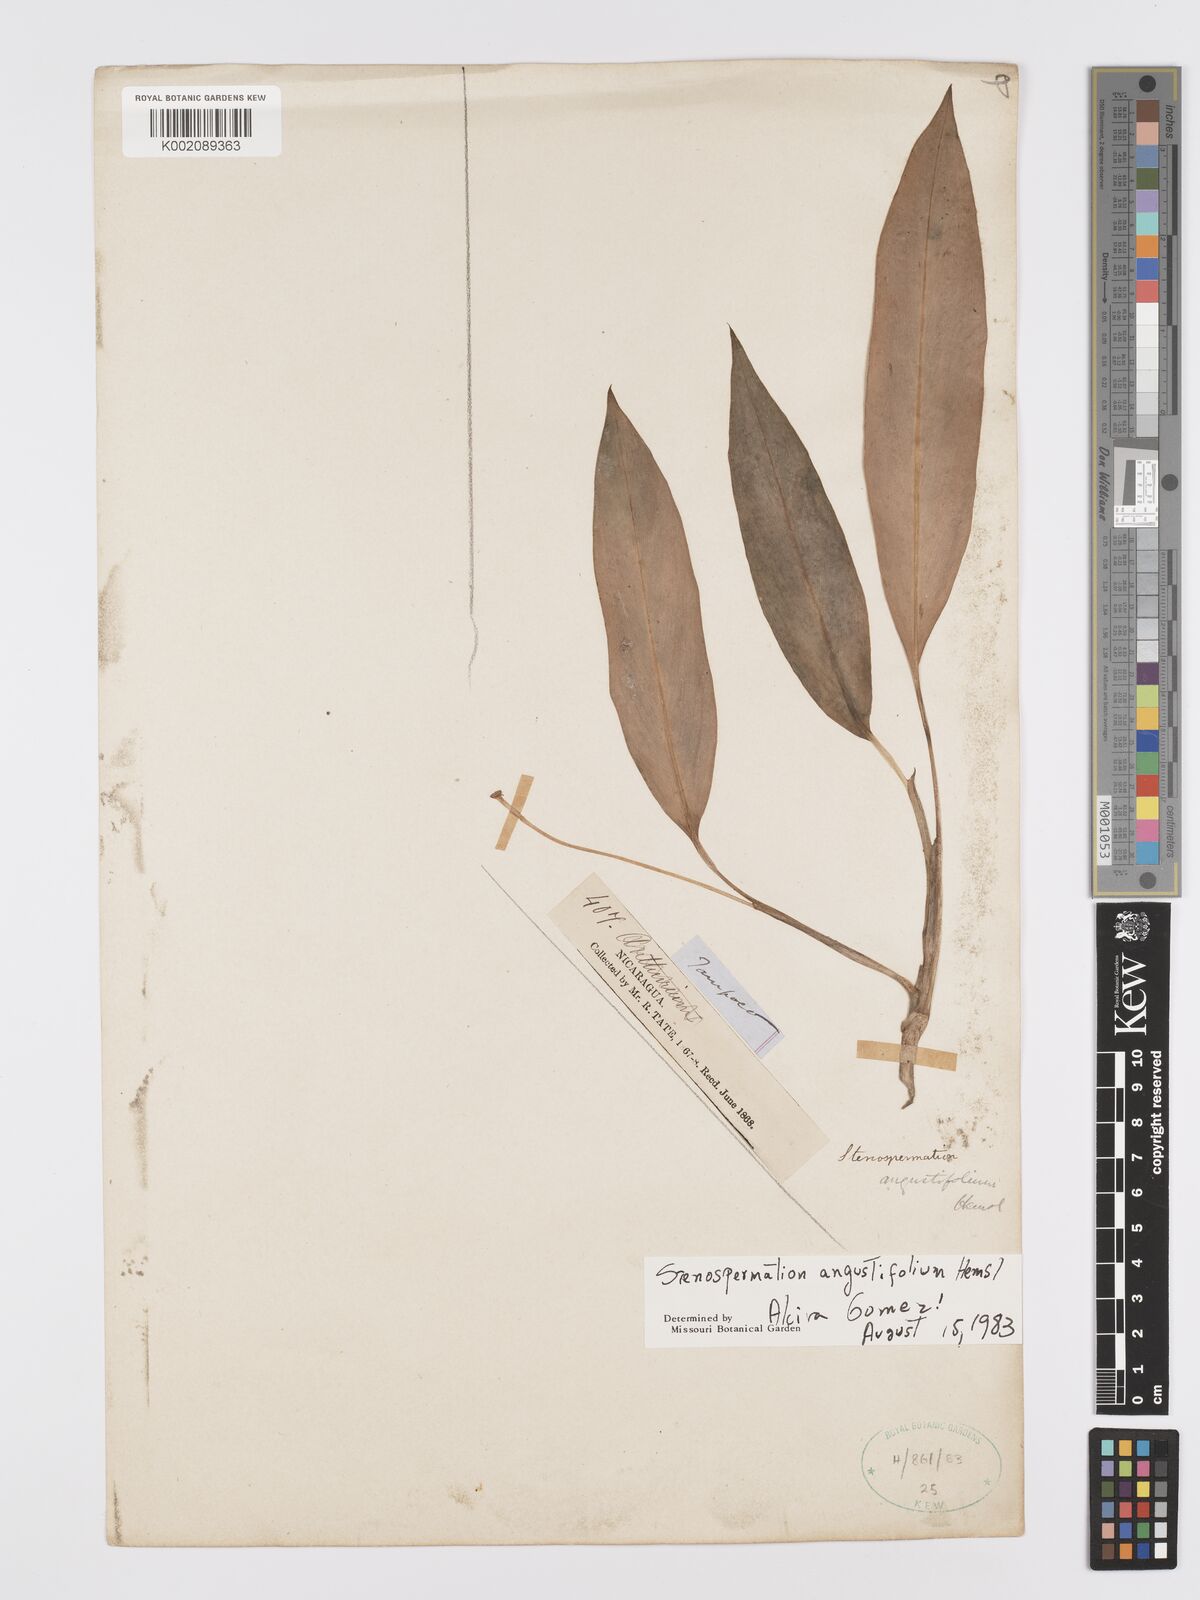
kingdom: Plantae
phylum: Tracheophyta
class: Liliopsida
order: Alismatales
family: Araceae
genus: Stenospermation
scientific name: Stenospermation angustifolium
